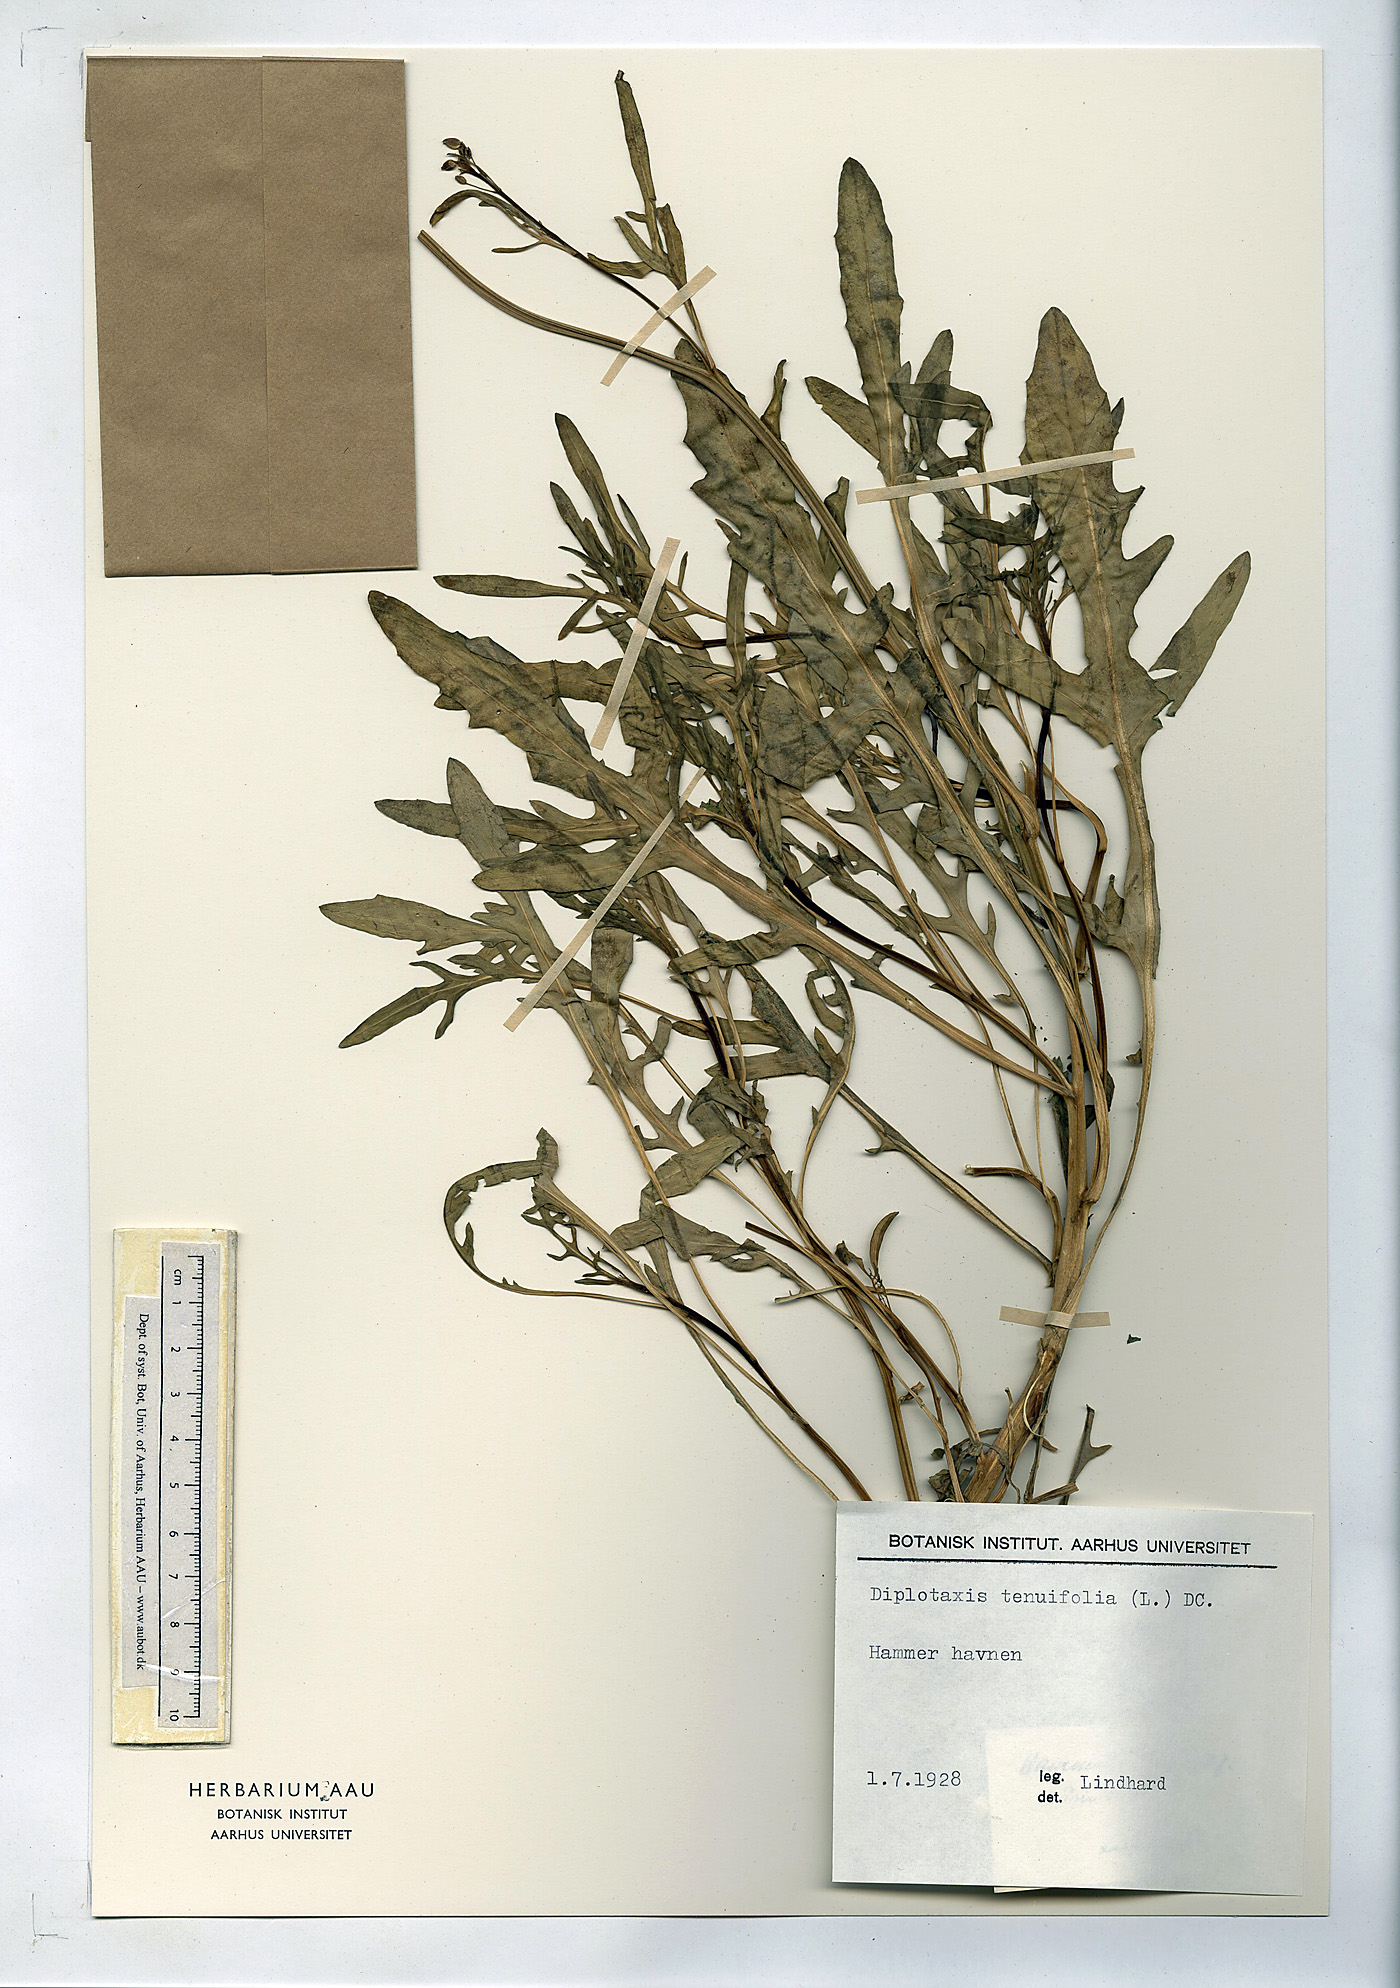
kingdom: Plantae
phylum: Tracheophyta
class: Magnoliopsida
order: Brassicales
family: Brassicaceae
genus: Diplotaxis
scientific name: Diplotaxis tenuifolia
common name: Perennial wall-rocket
